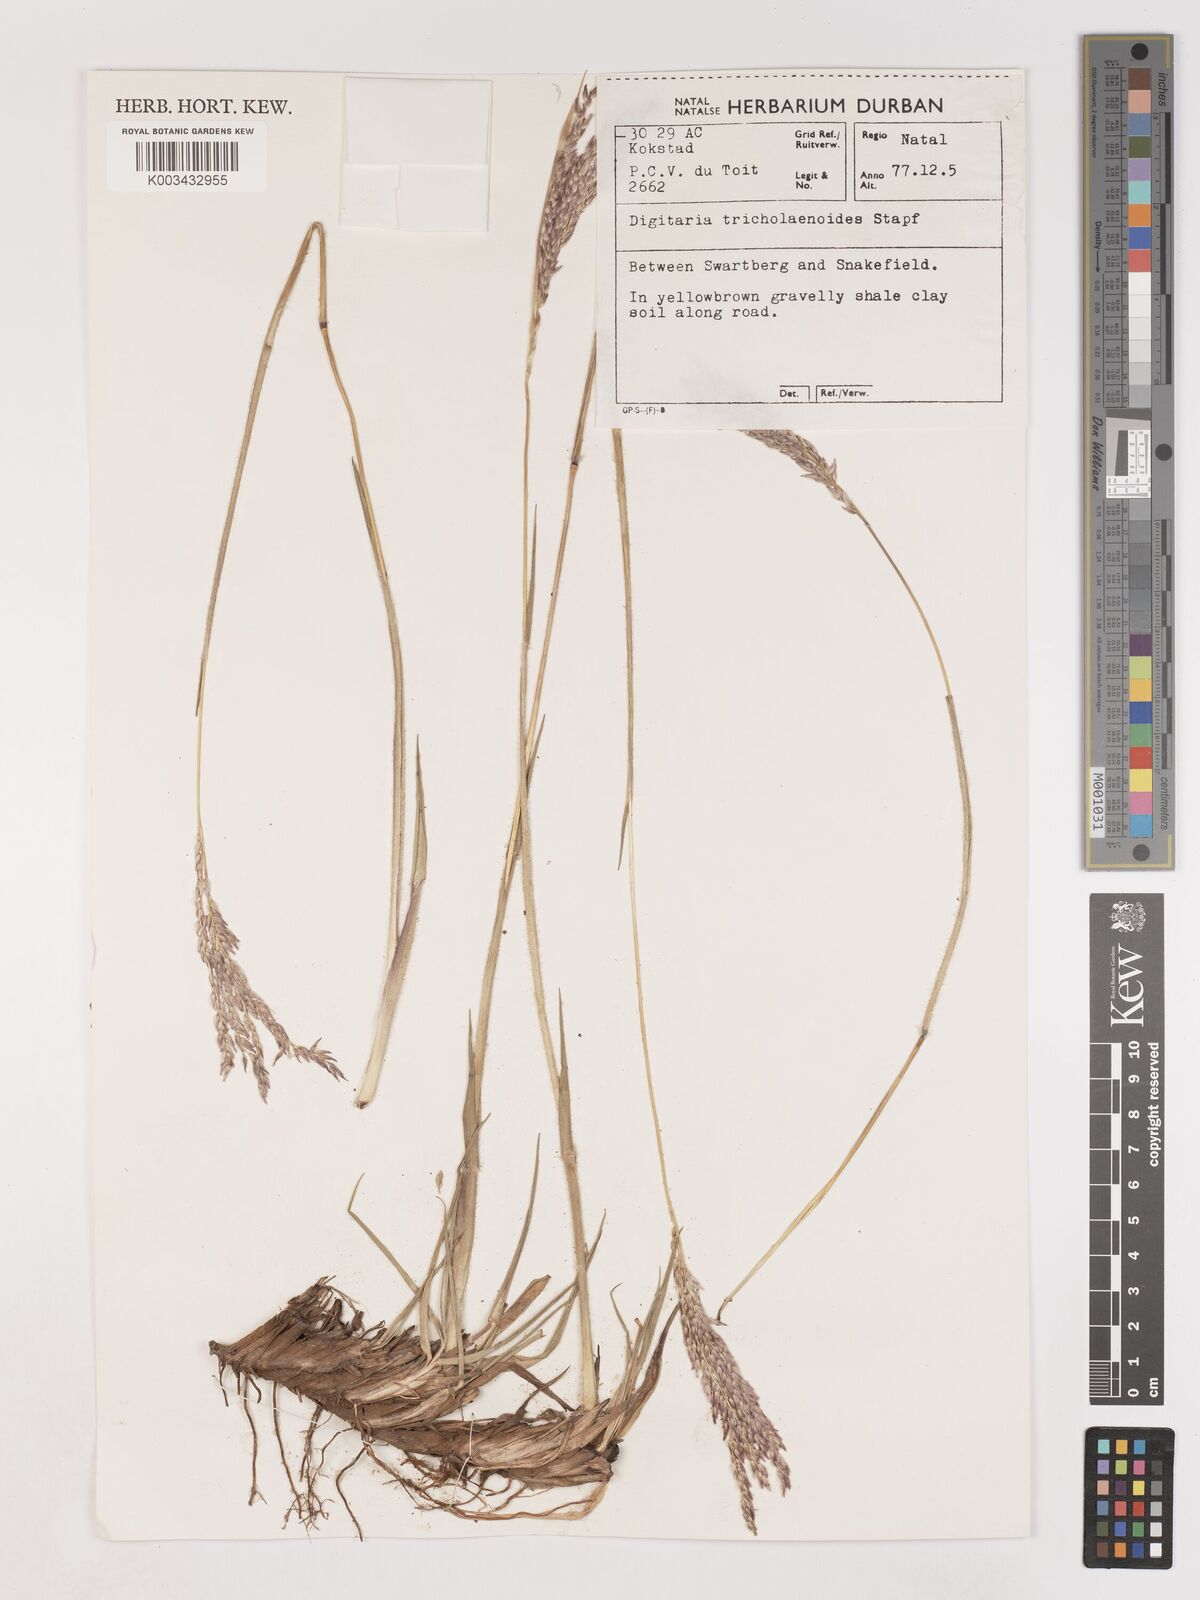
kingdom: Plantae
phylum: Tracheophyta
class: Liliopsida
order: Poales
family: Poaceae
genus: Digitaria
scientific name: Digitaria tricholaenoides
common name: Purple finger grass
